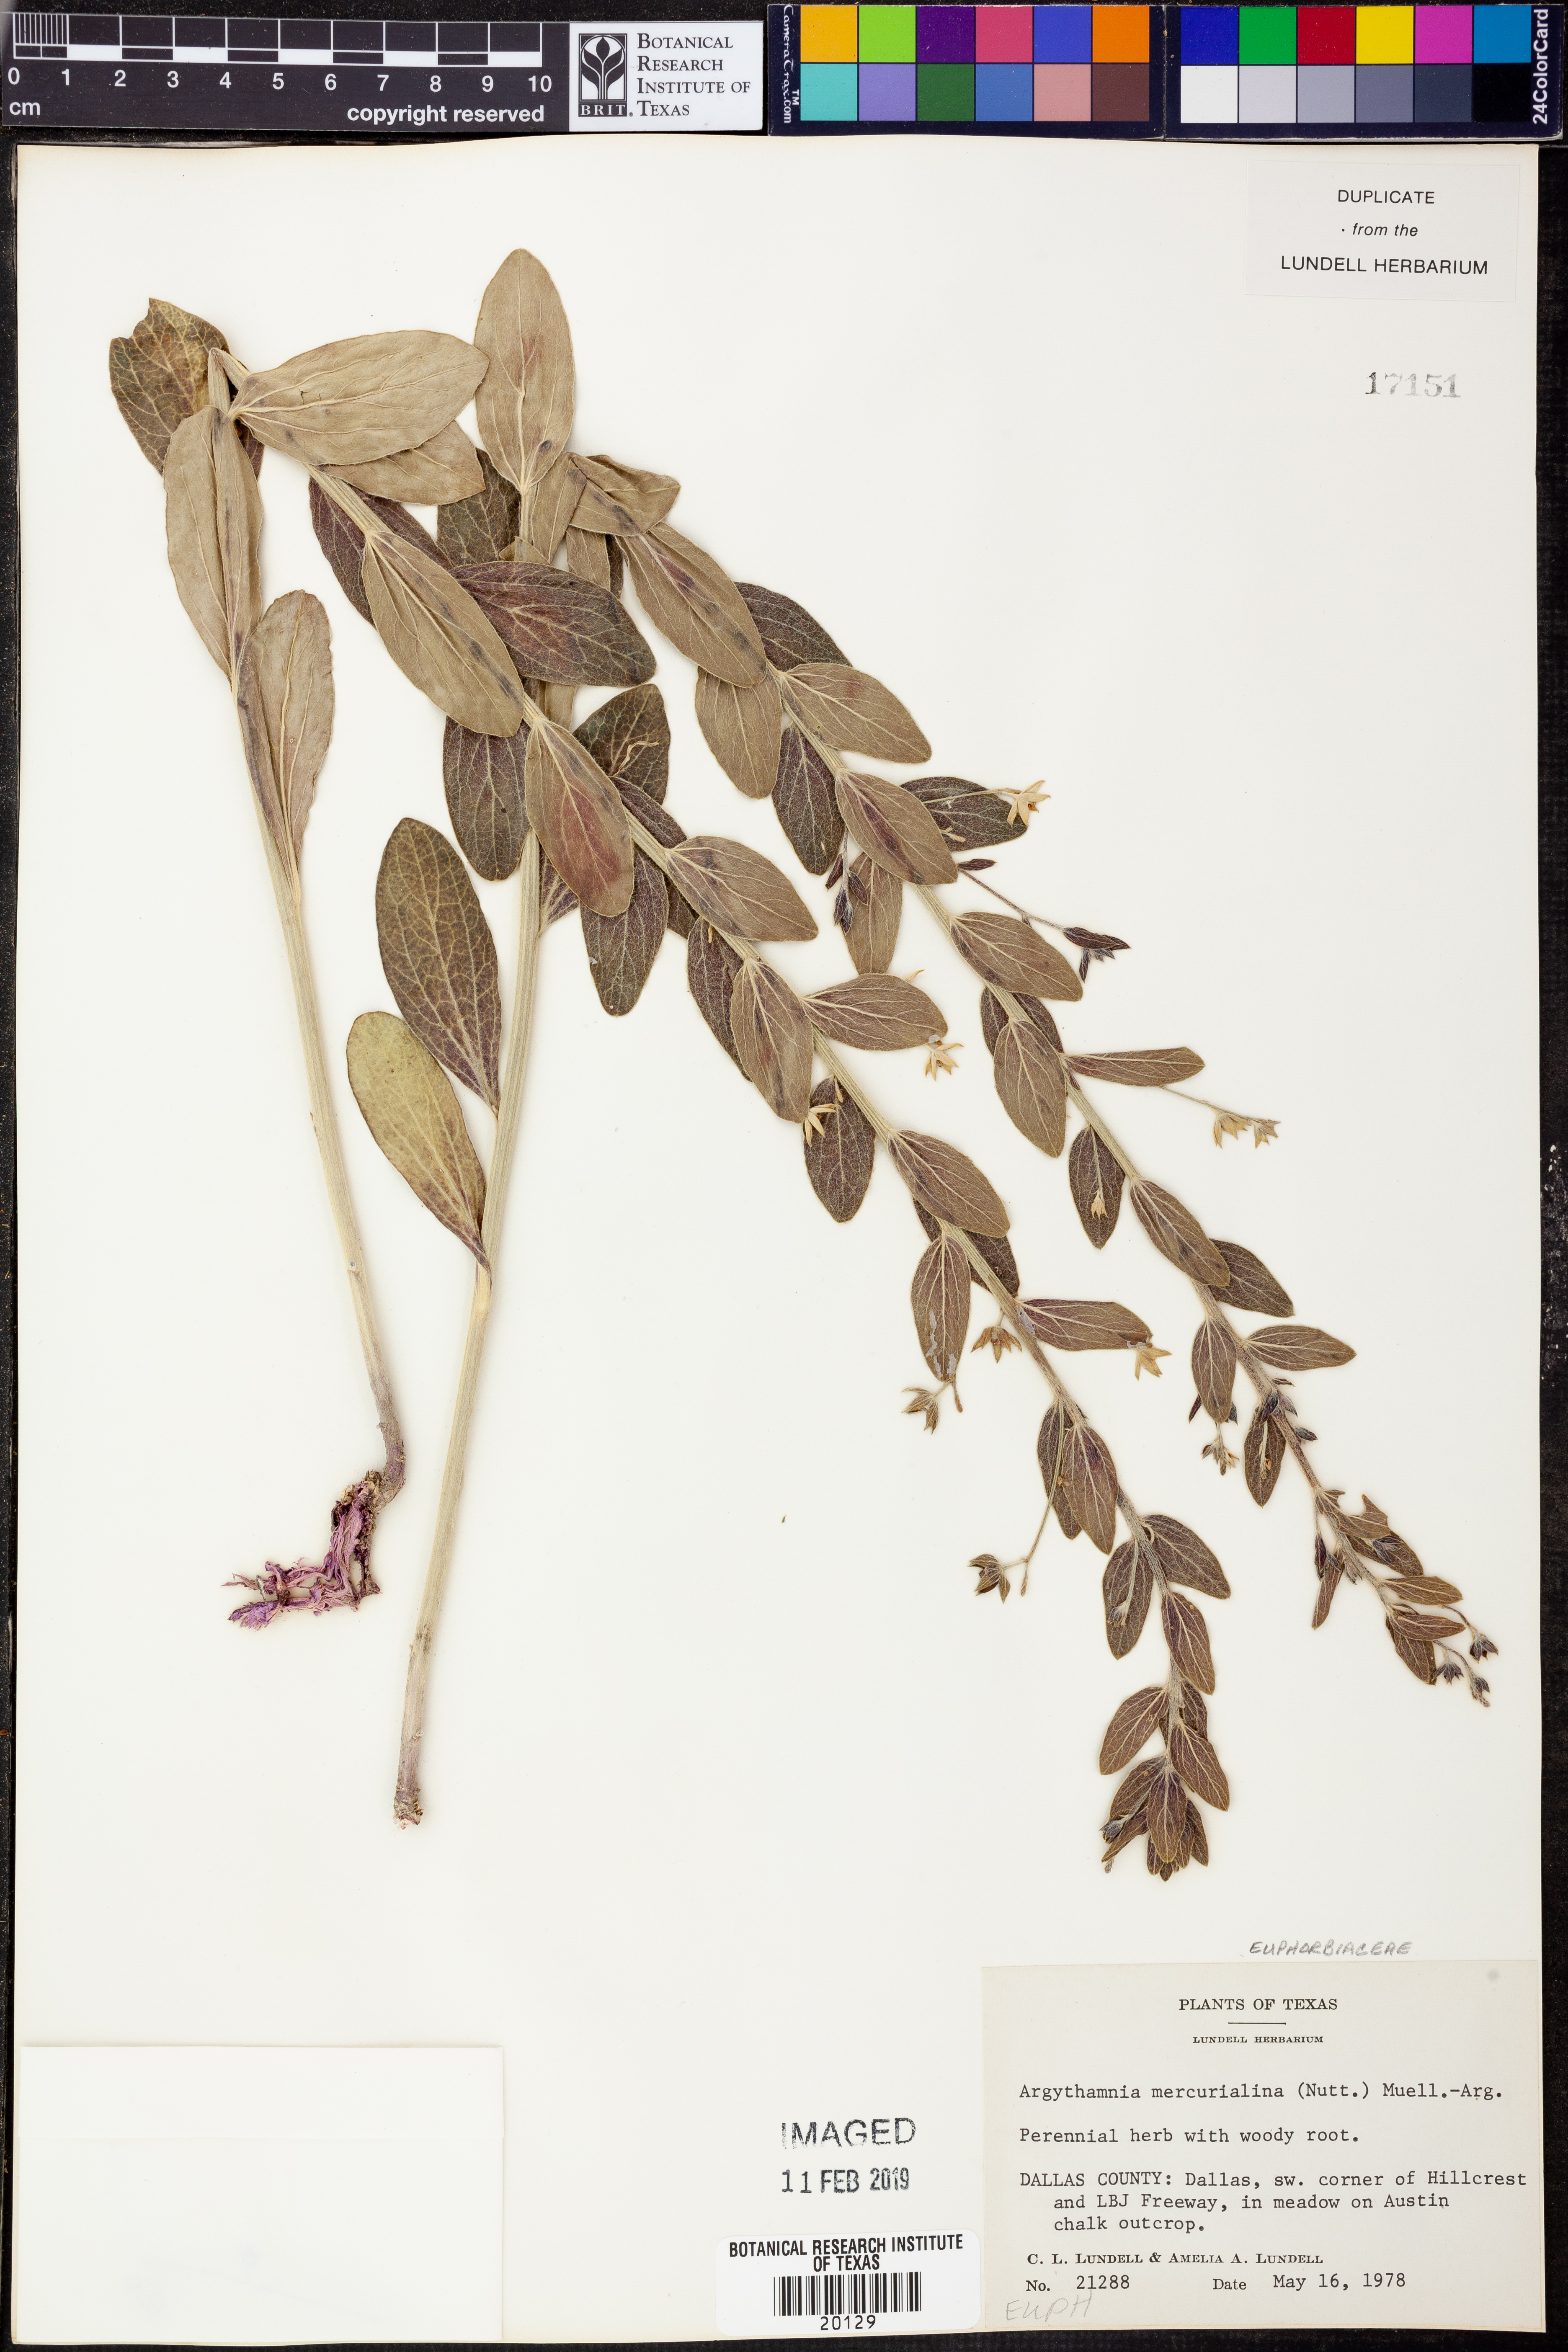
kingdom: Plantae
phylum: Tracheophyta
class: Magnoliopsida
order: Malpighiales
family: Euphorbiaceae
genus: Ditaxis
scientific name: Ditaxis mercurialina
